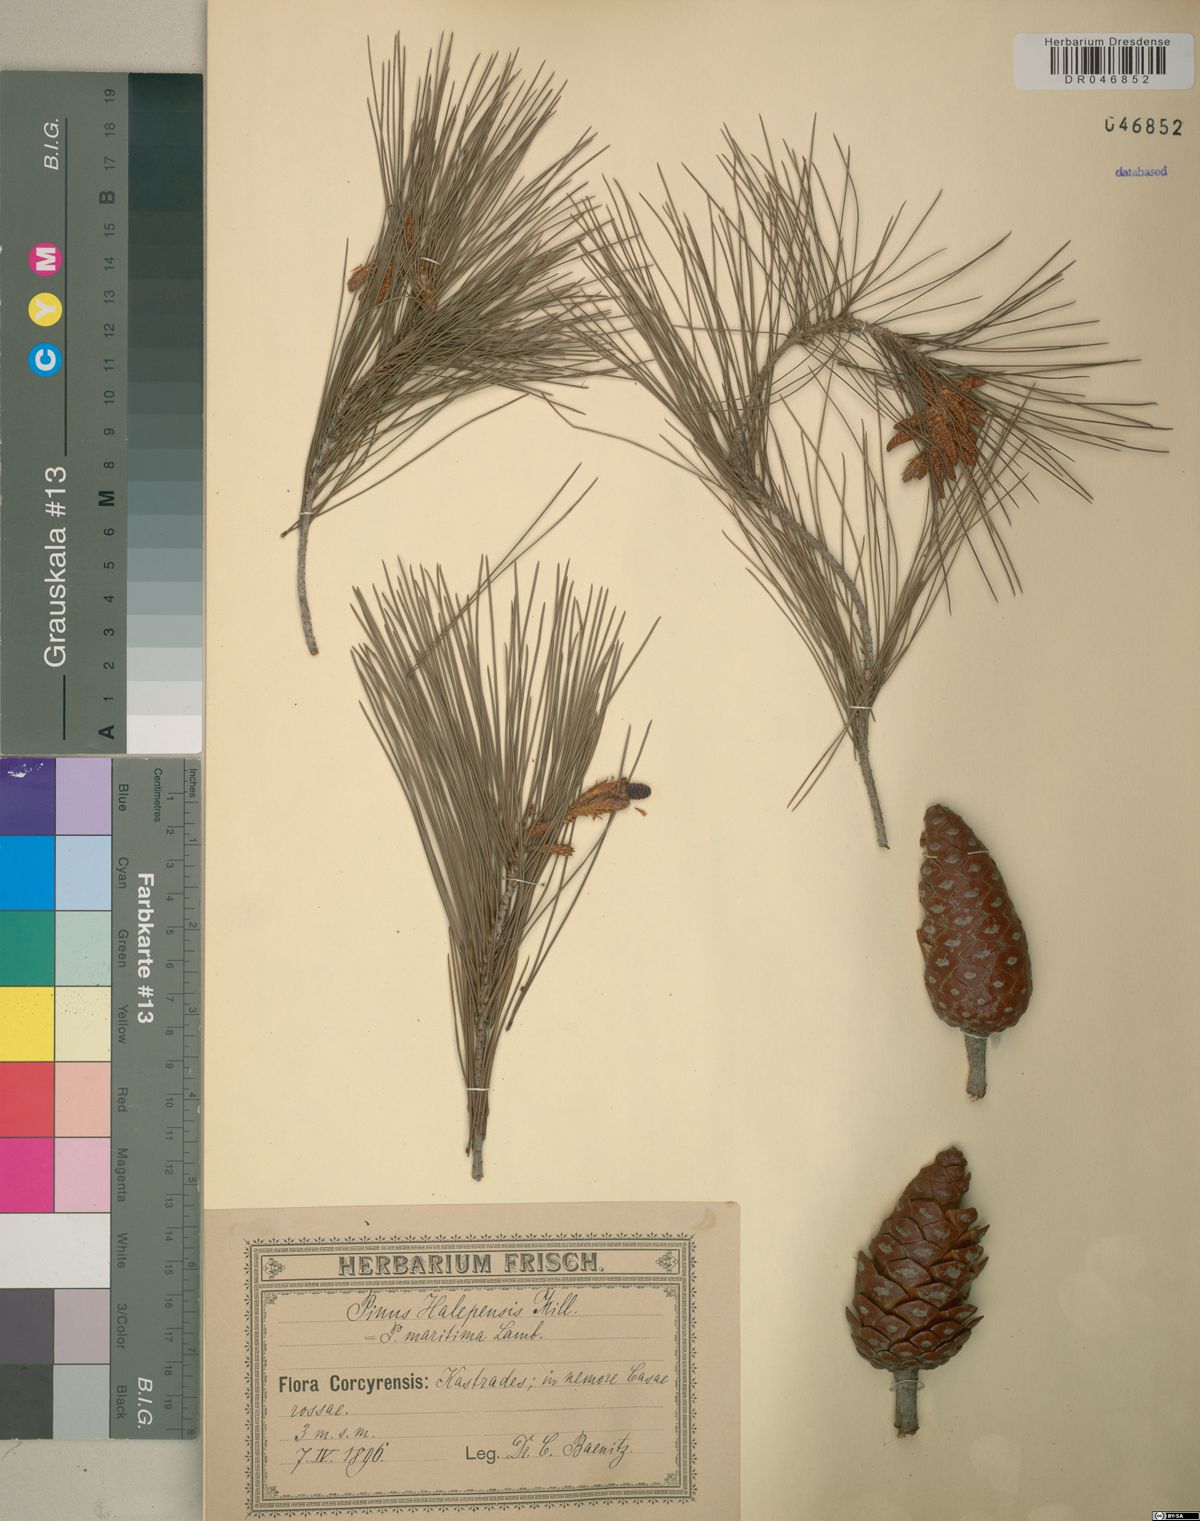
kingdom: Plantae
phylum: Tracheophyta
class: Pinopsida
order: Pinales
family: Pinaceae
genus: Pinus
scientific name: Pinus halepensis
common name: Aleppo pine
